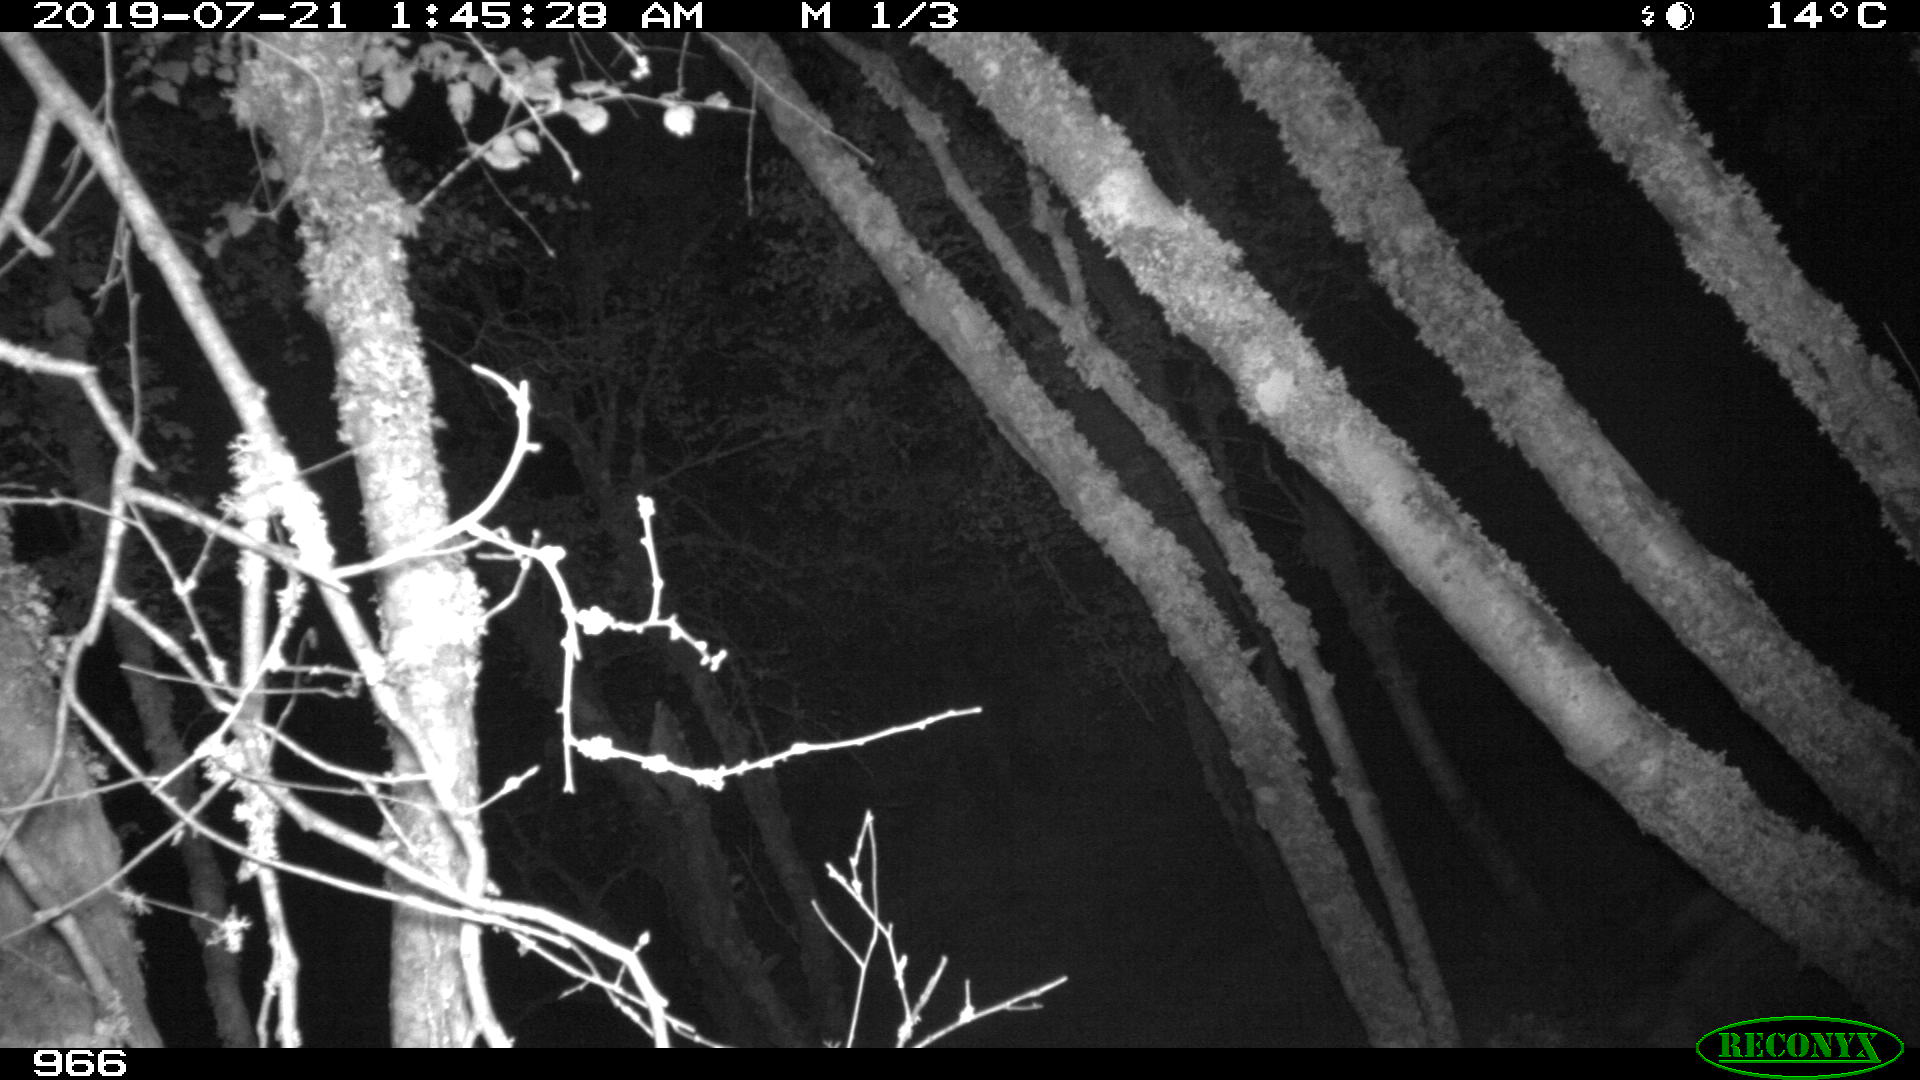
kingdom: Animalia
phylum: Chordata
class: Mammalia
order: Artiodactyla
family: Suidae
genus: Sus
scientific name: Sus scrofa
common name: Wild boar
